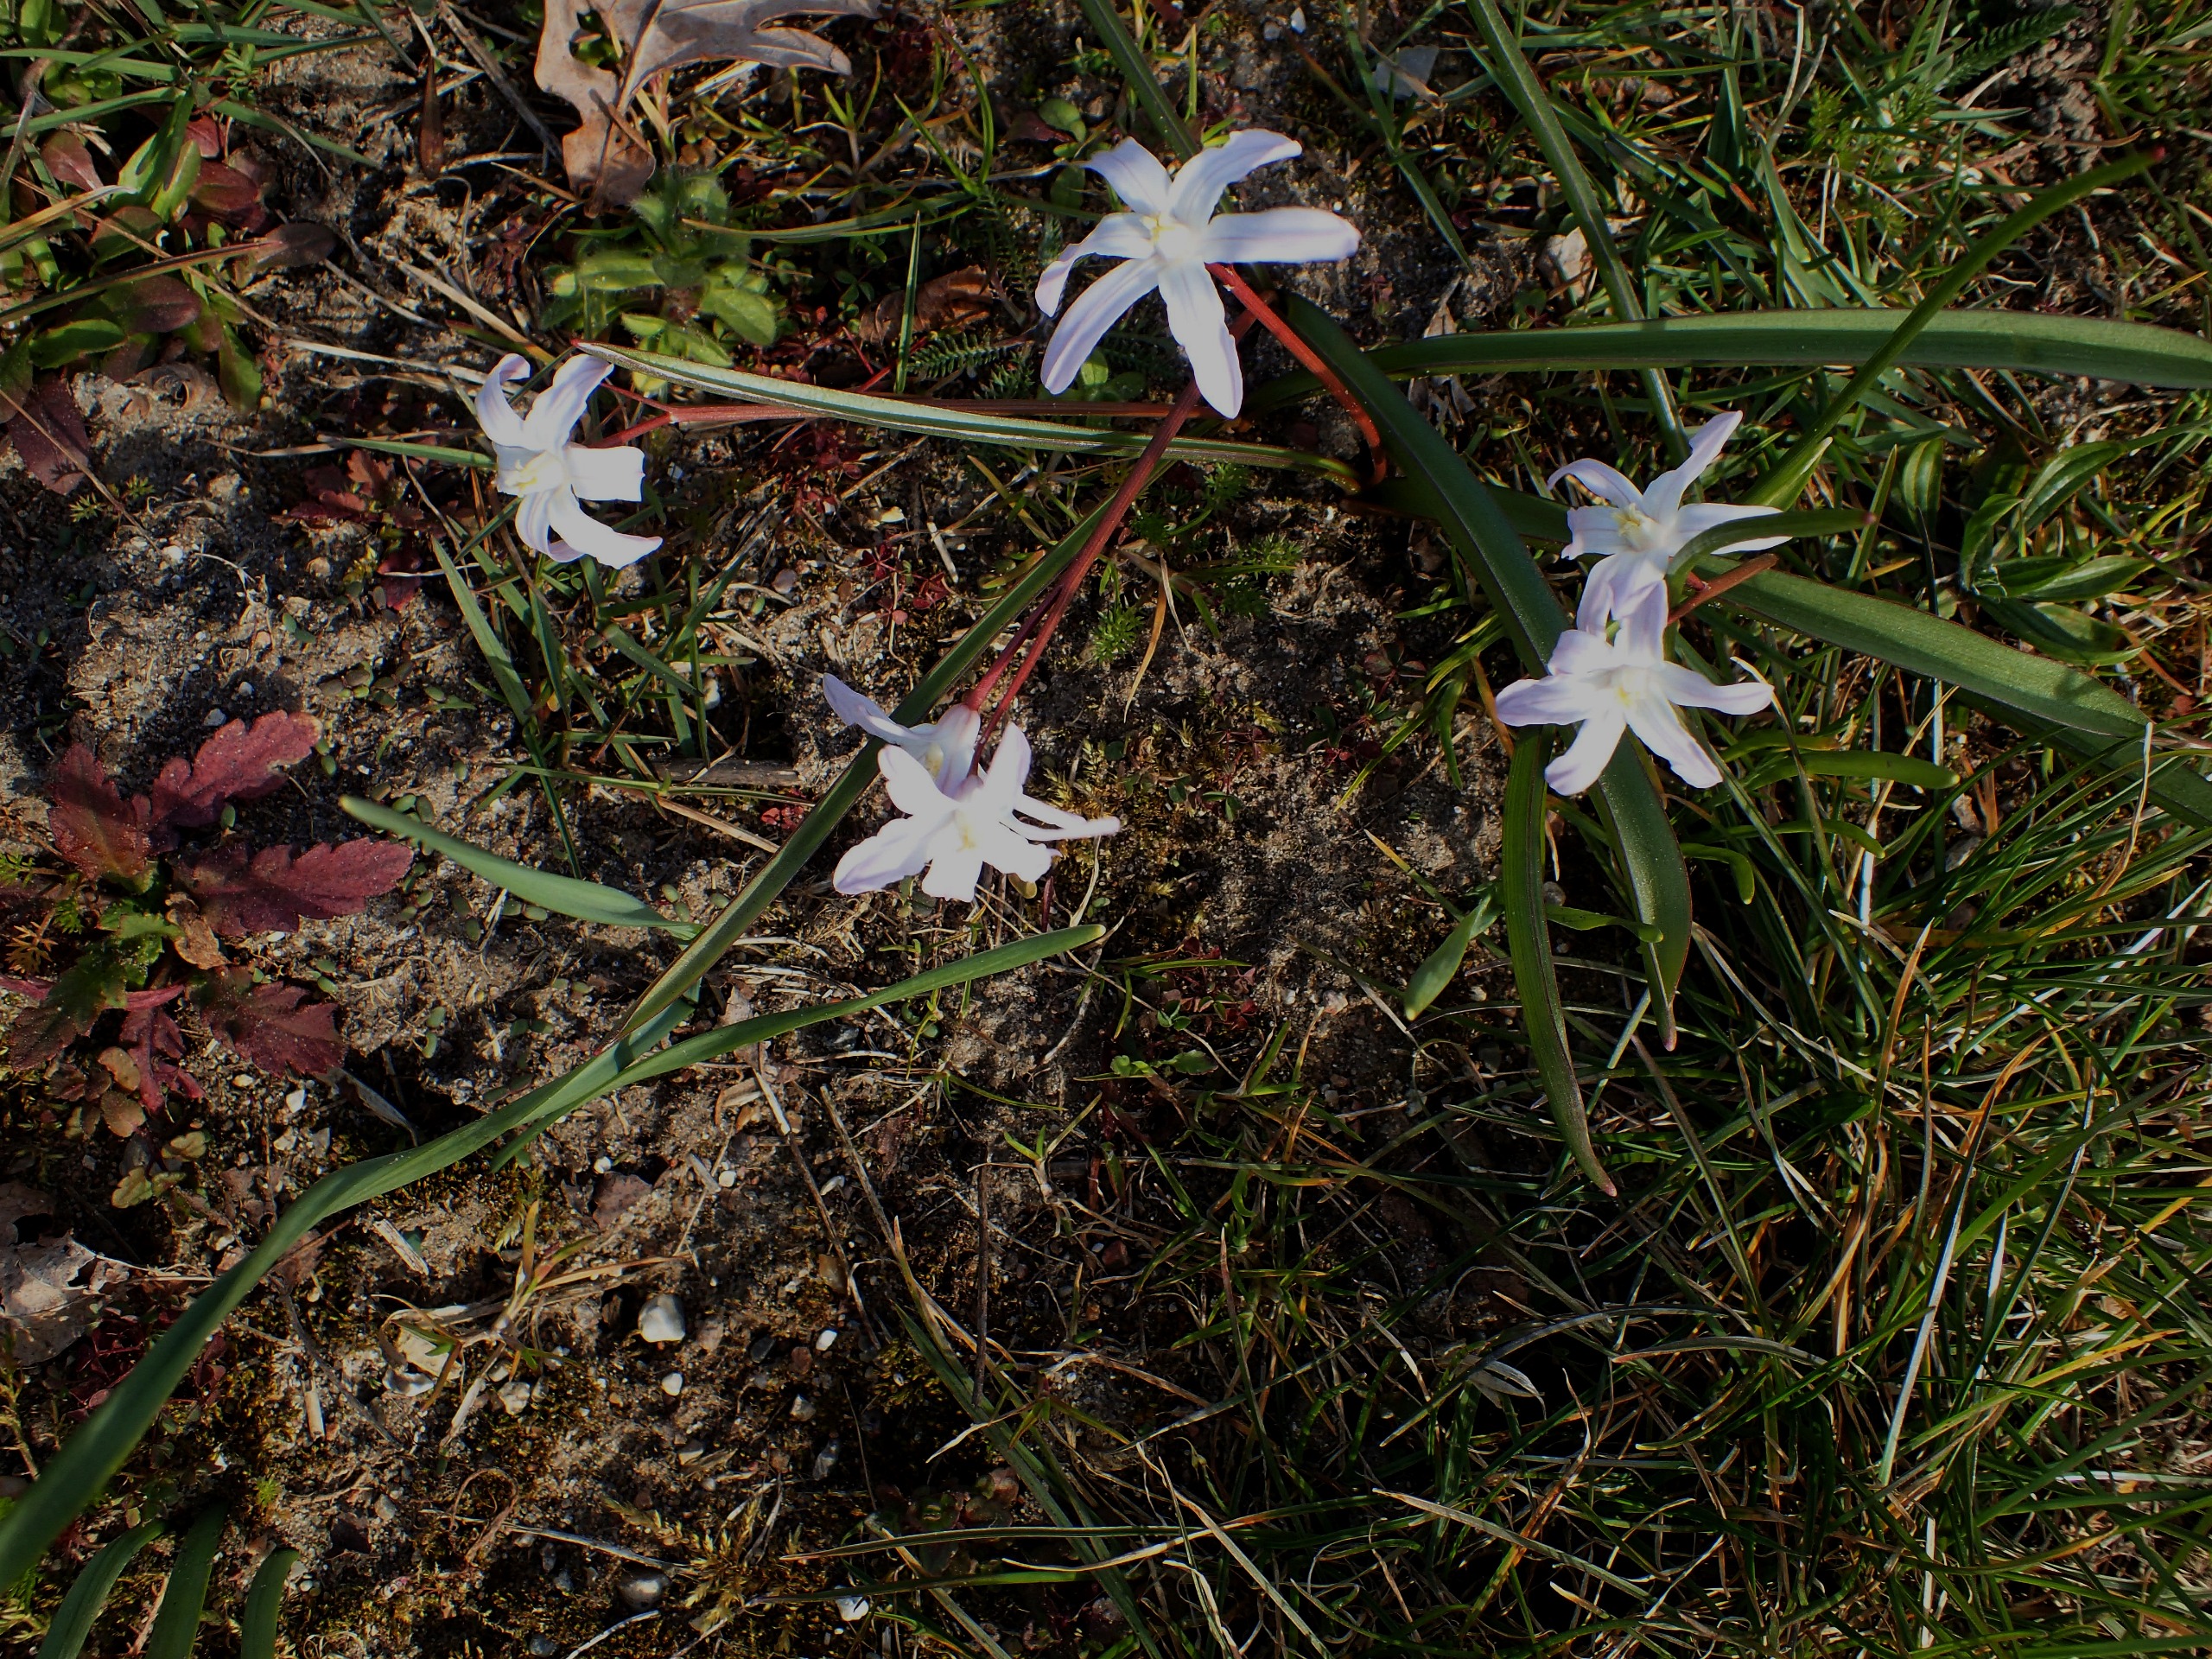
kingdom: Plantae
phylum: Tracheophyta
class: Liliopsida
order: Asparagales
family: Asparagaceae
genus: Scilla
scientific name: Scilla luciliae
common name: Stor snepryd
